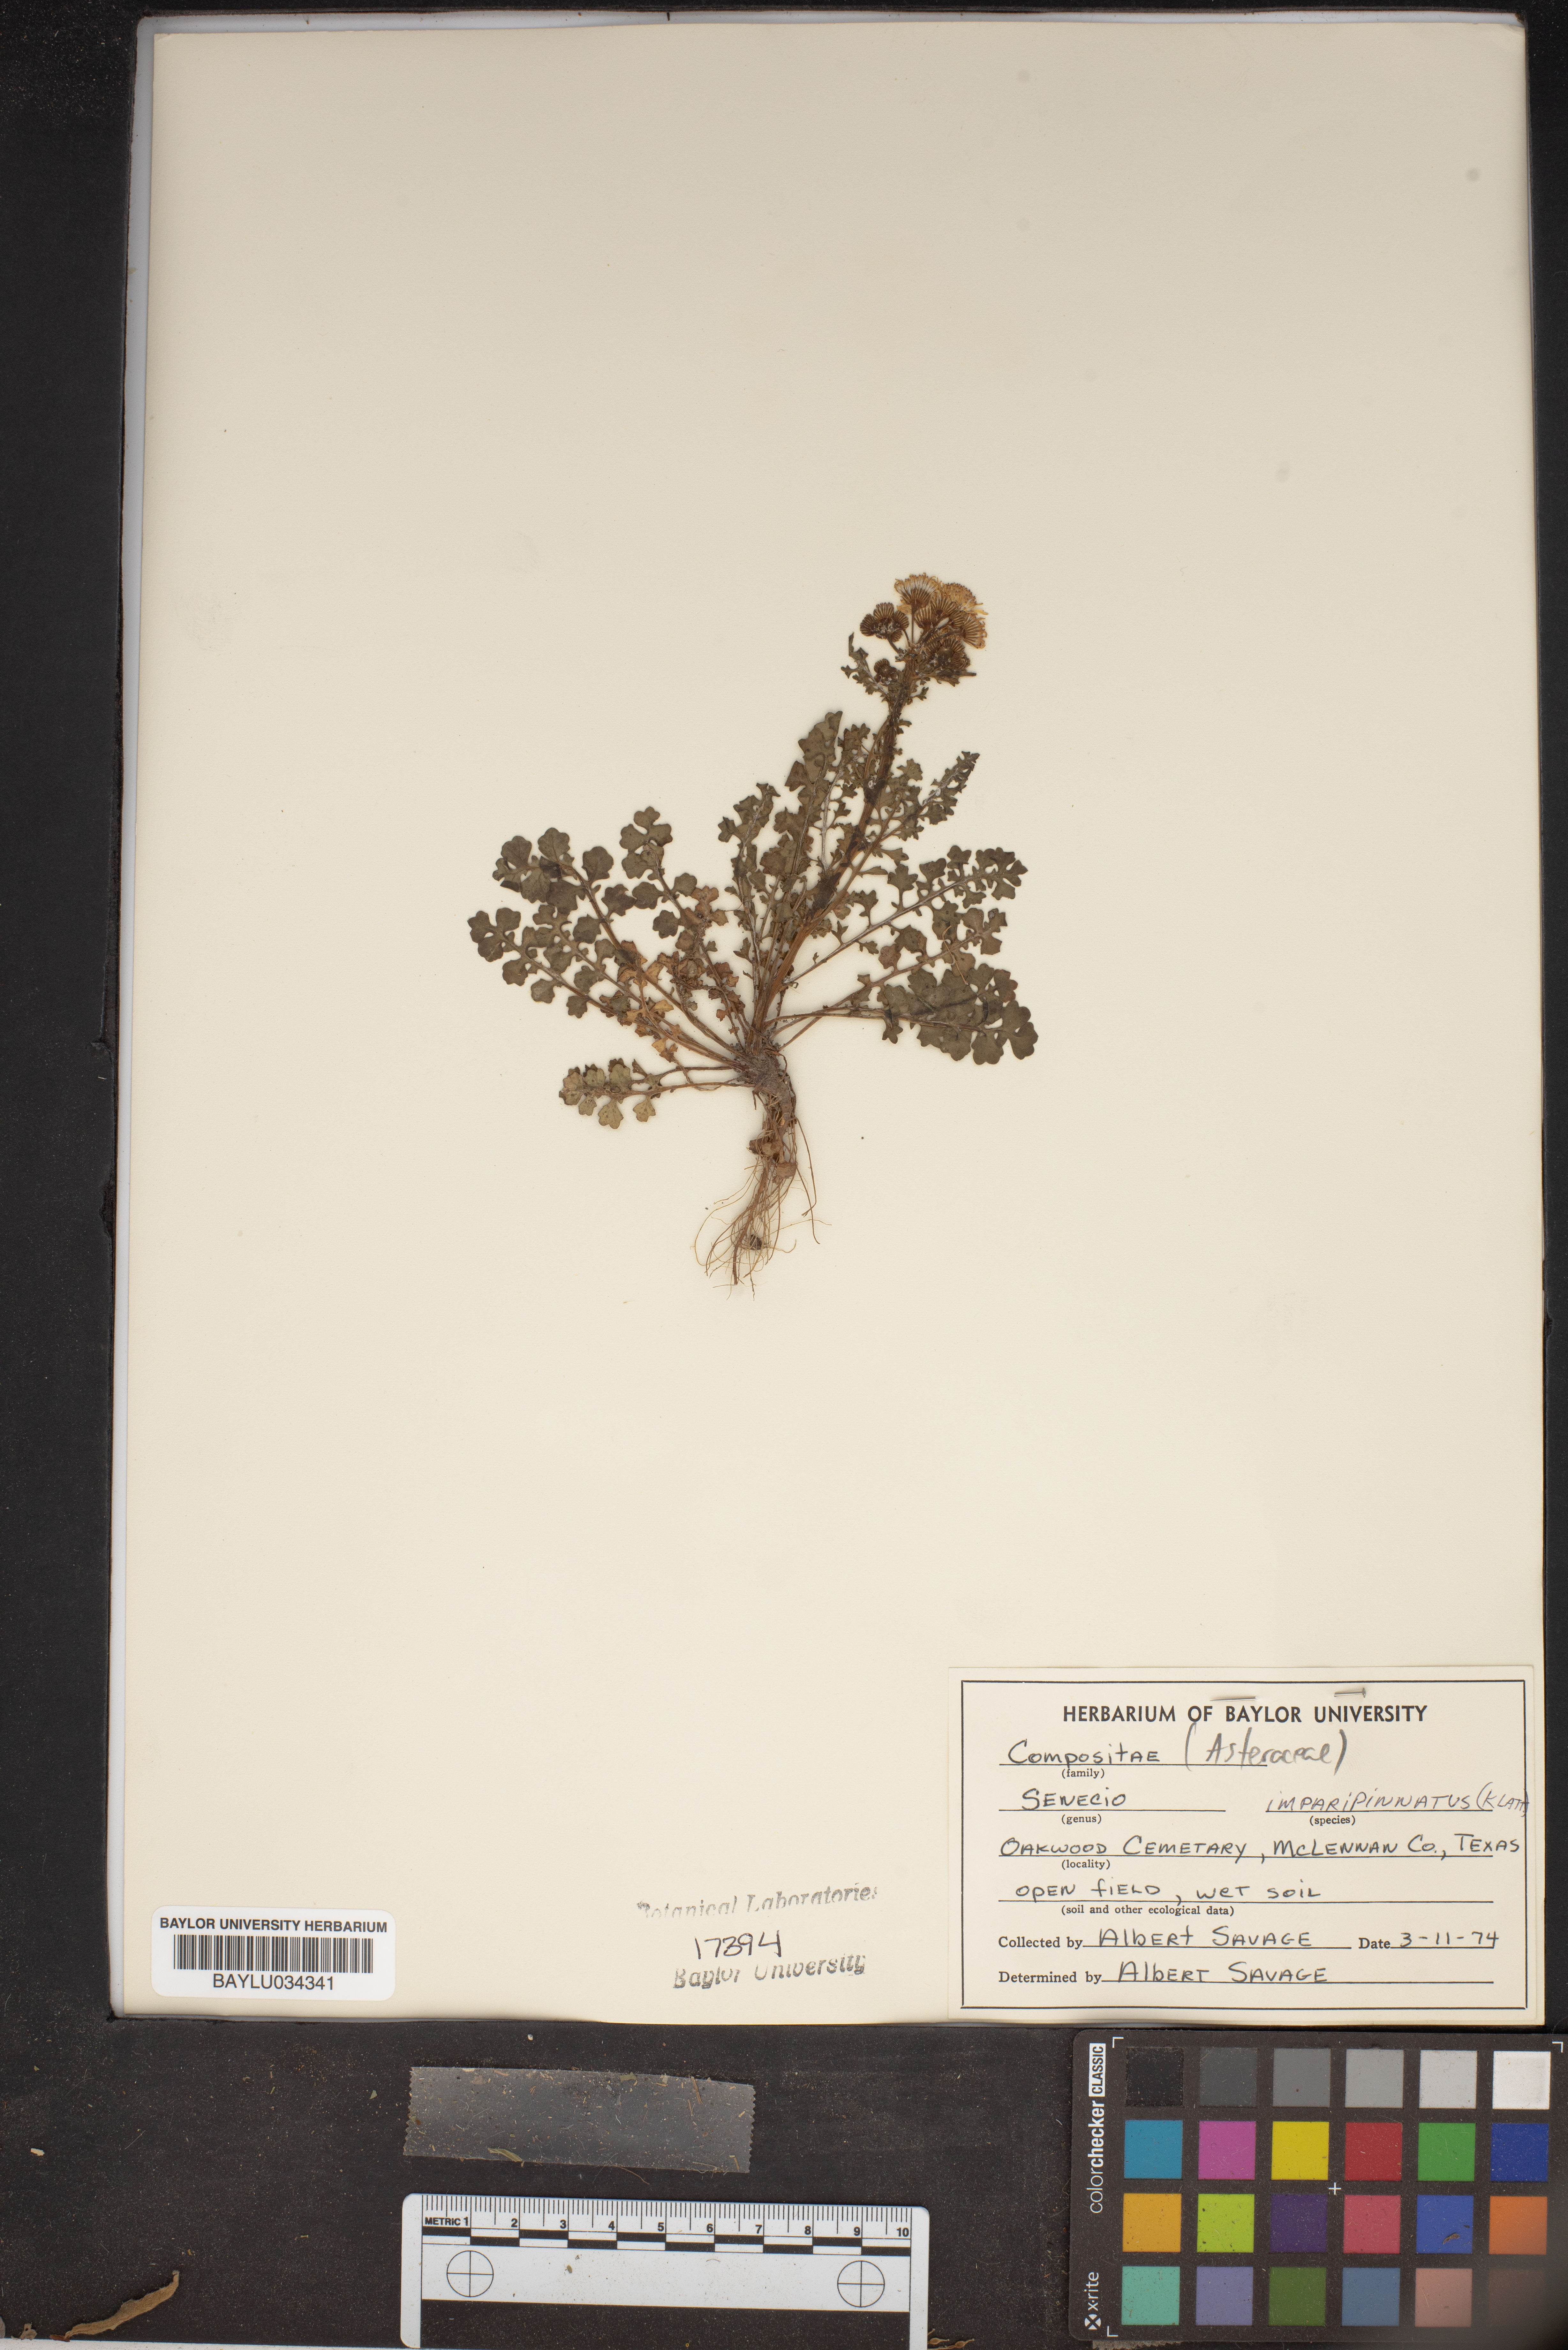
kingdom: Plantae
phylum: Tracheophyta
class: Magnoliopsida
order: Asterales
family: Asteraceae
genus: Packera
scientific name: Packera tampicana
